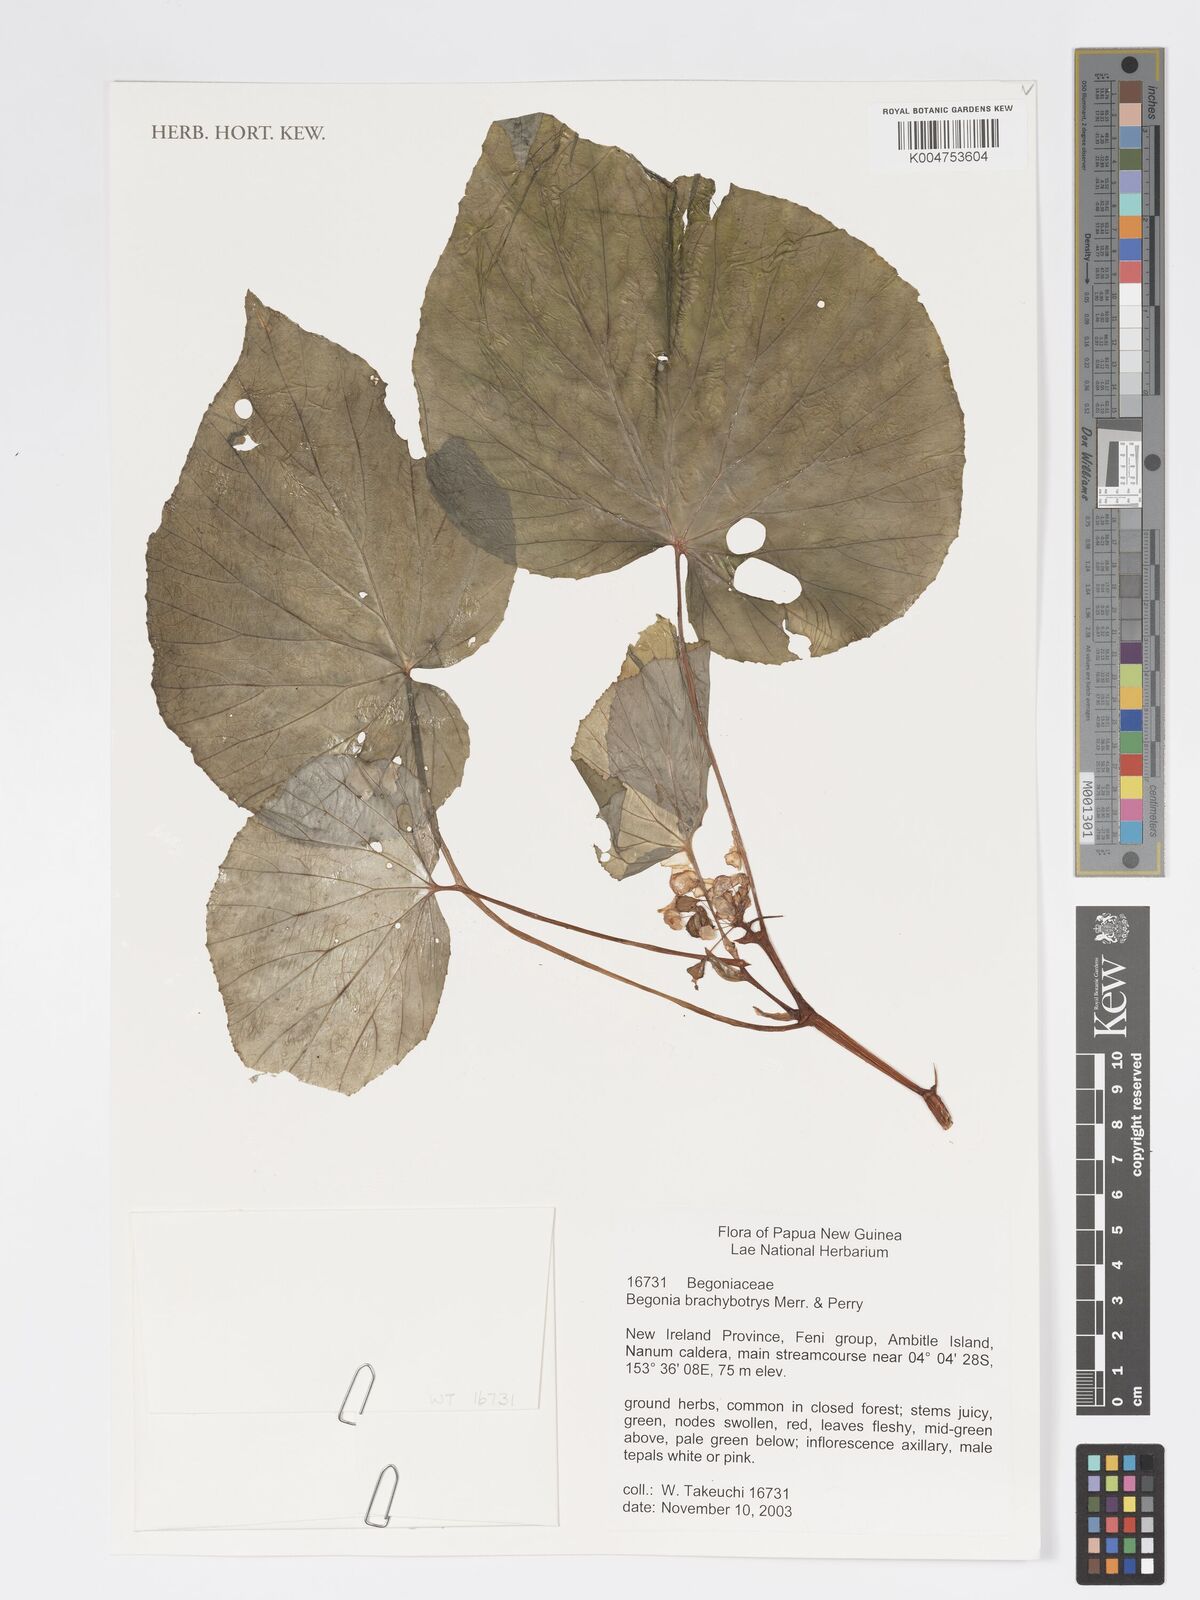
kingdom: Plantae
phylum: Tracheophyta
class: Magnoliopsida
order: Cucurbitales
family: Begoniaceae
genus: Begonia
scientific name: Begonia brachybotrys
